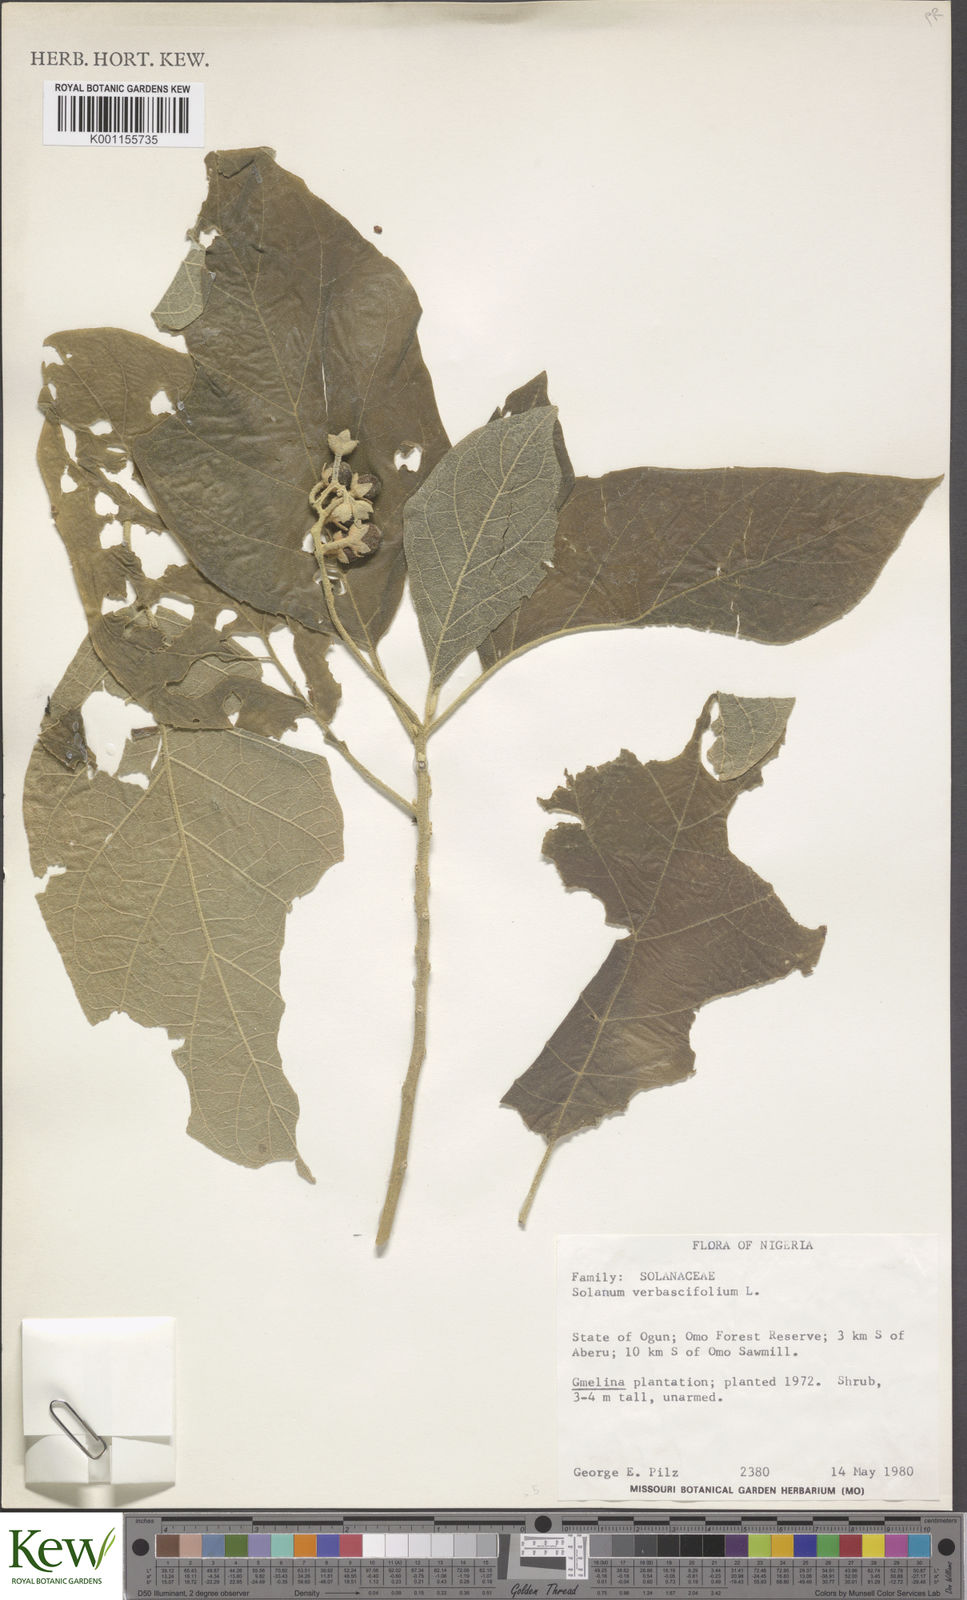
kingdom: Plantae
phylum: Tracheophyta
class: Magnoliopsida
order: Solanales
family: Solanaceae
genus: Solanum
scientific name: Solanum erianthum
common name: Tobacco-tree
